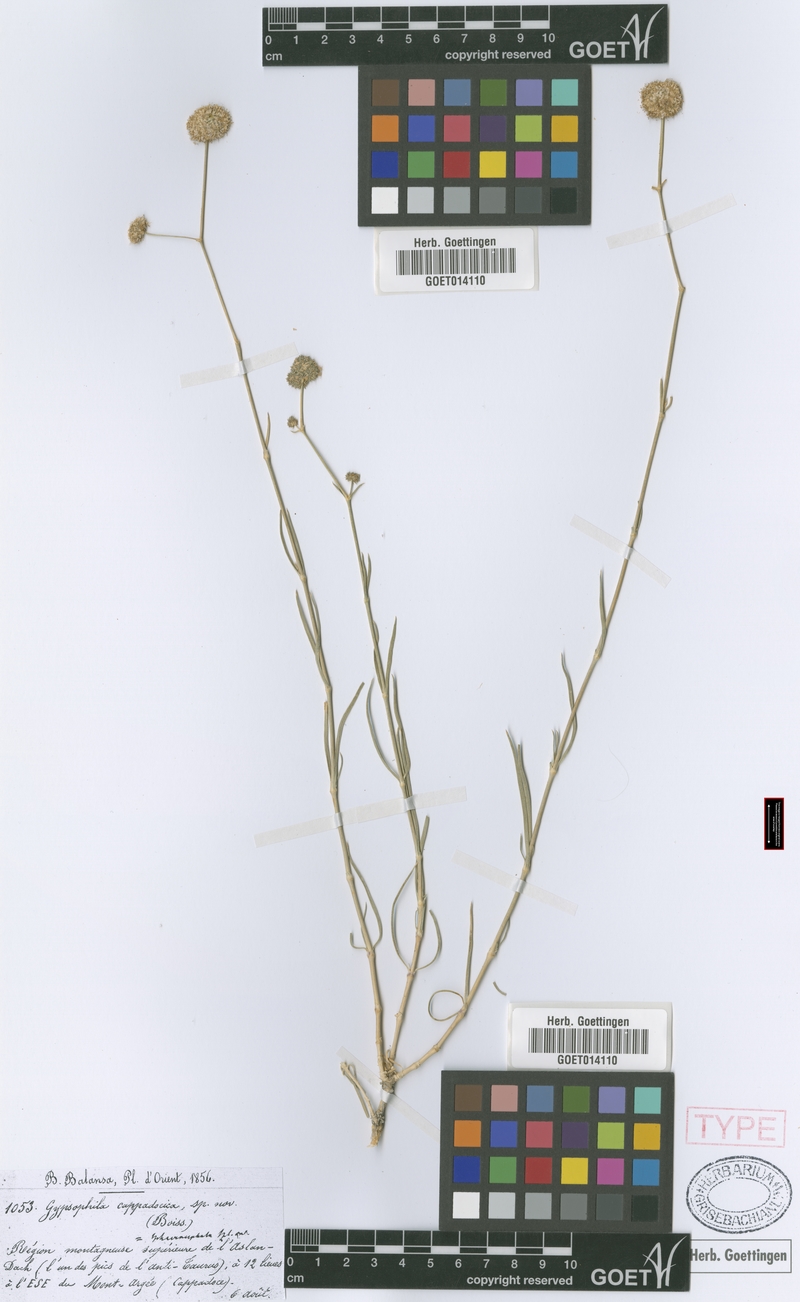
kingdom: Plantae
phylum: Tracheophyta
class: Magnoliopsida
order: Caryophyllales
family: Caryophyllaceae
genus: Gypsophila
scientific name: Gypsophila laricina
